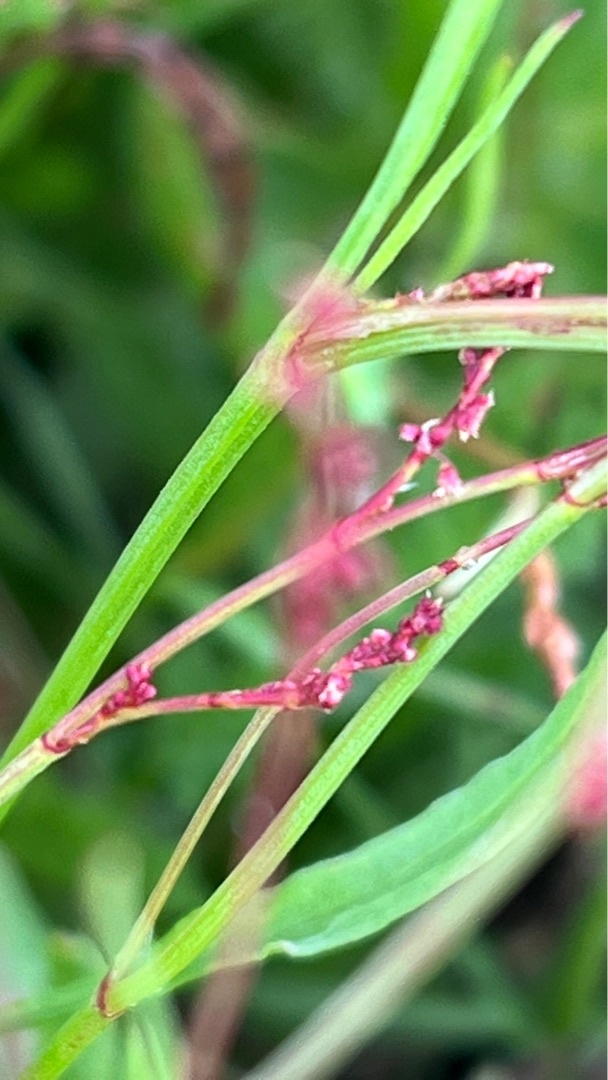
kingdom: Plantae
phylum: Tracheophyta
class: Magnoliopsida
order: Caryophyllales
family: Polygonaceae
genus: Rumex
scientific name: Rumex acetosella
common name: Rødknæ
